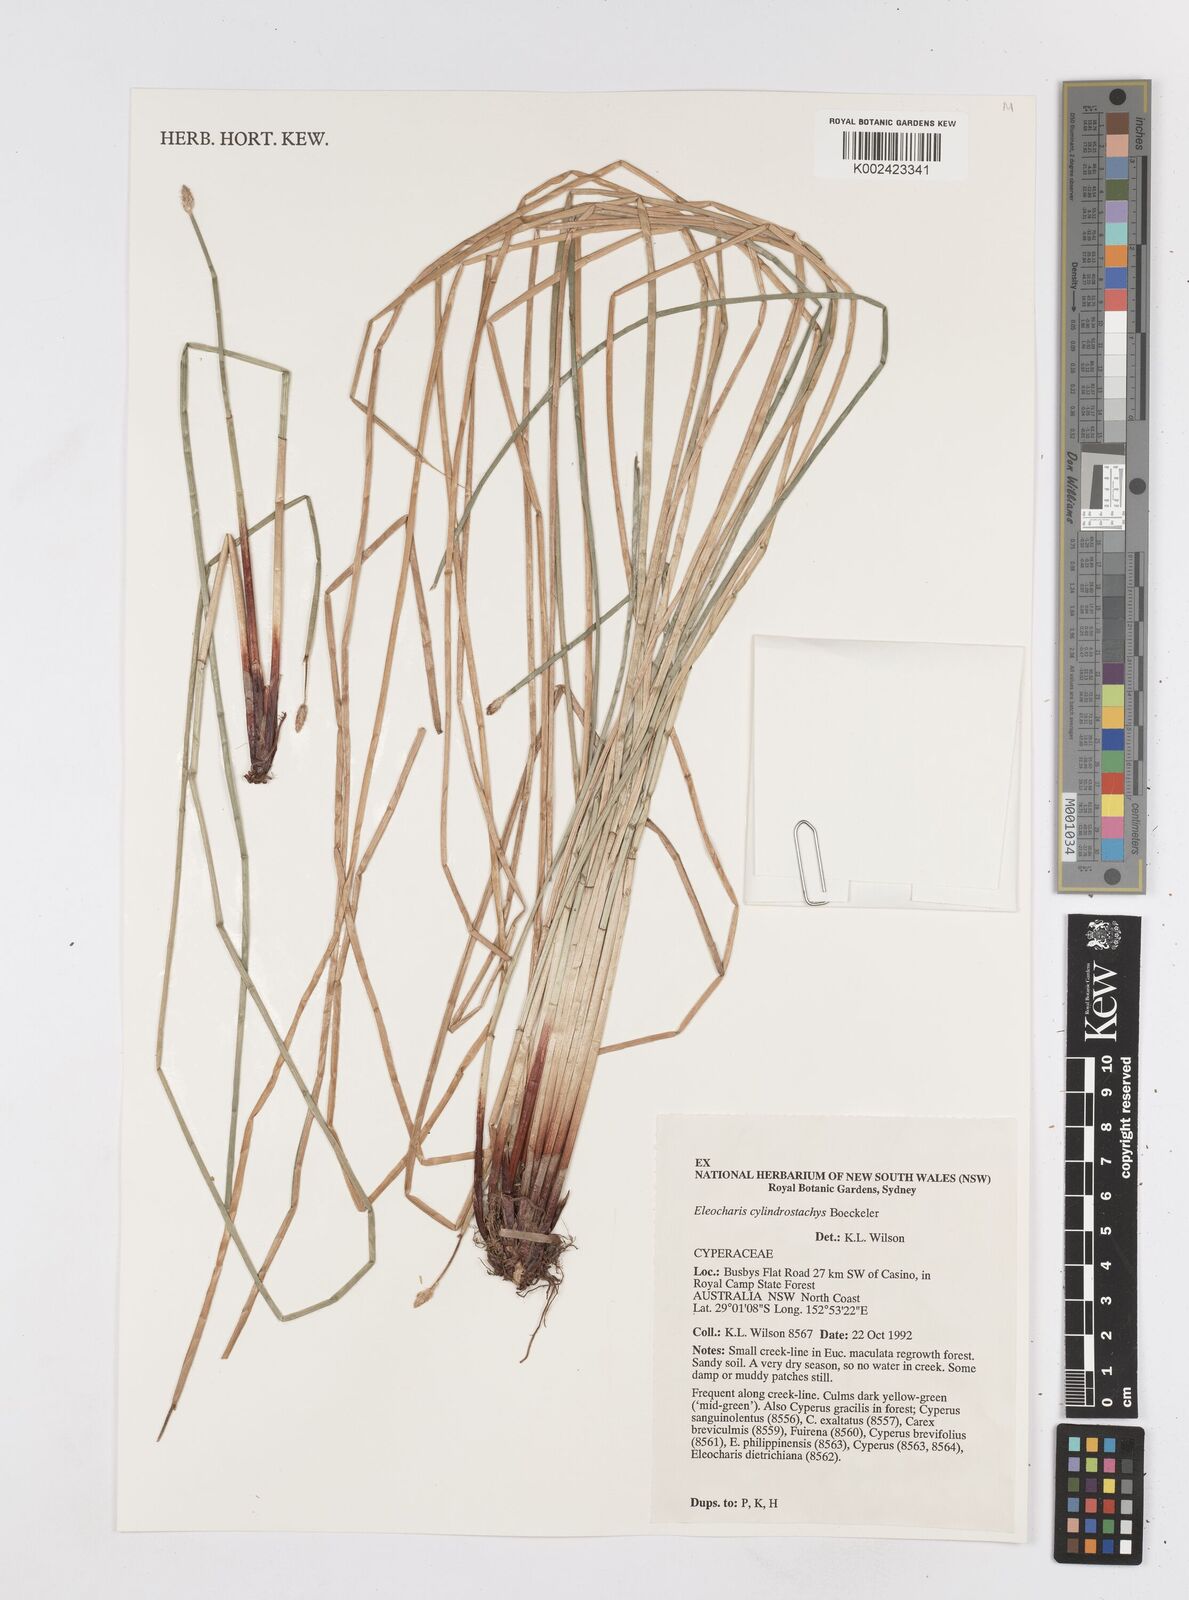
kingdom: Plantae
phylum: Tracheophyta
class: Liliopsida
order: Poales
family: Cyperaceae
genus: Eleocharis
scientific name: Eleocharis cylindrostachys
